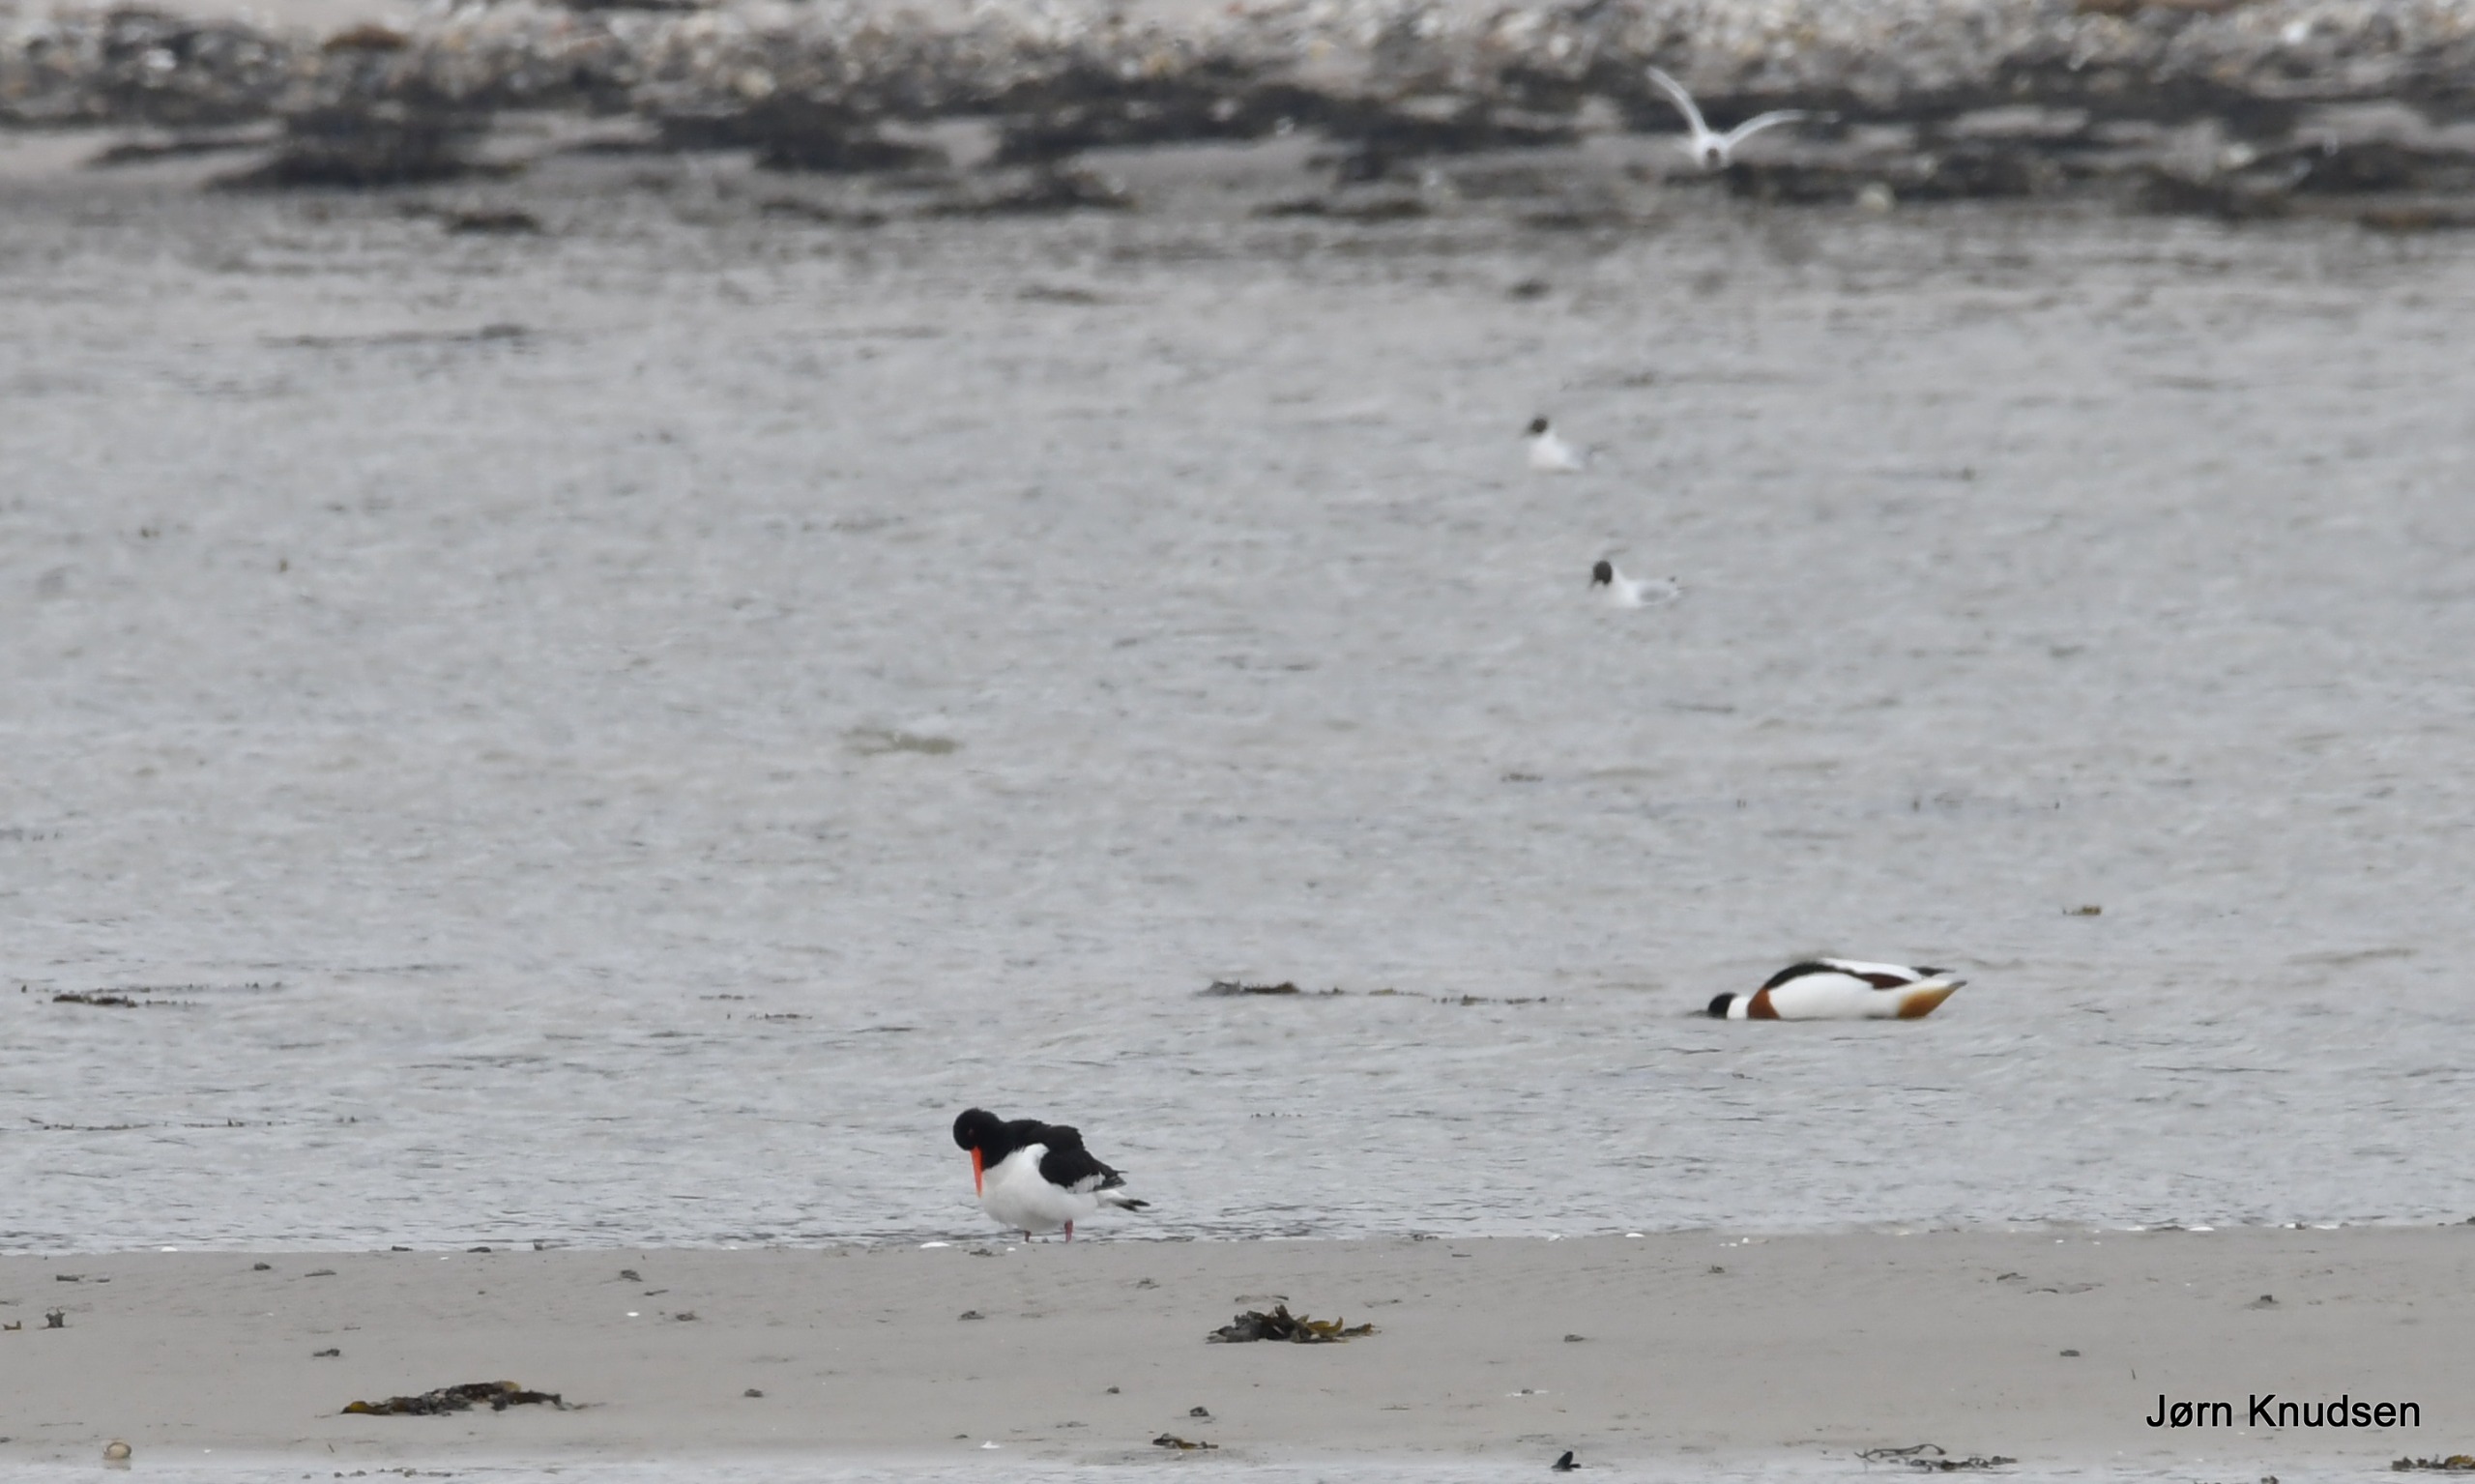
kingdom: Animalia
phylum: Chordata
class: Aves
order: Charadriiformes
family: Haematopodidae
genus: Haematopus
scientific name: Haematopus ostralegus
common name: Strandskade
